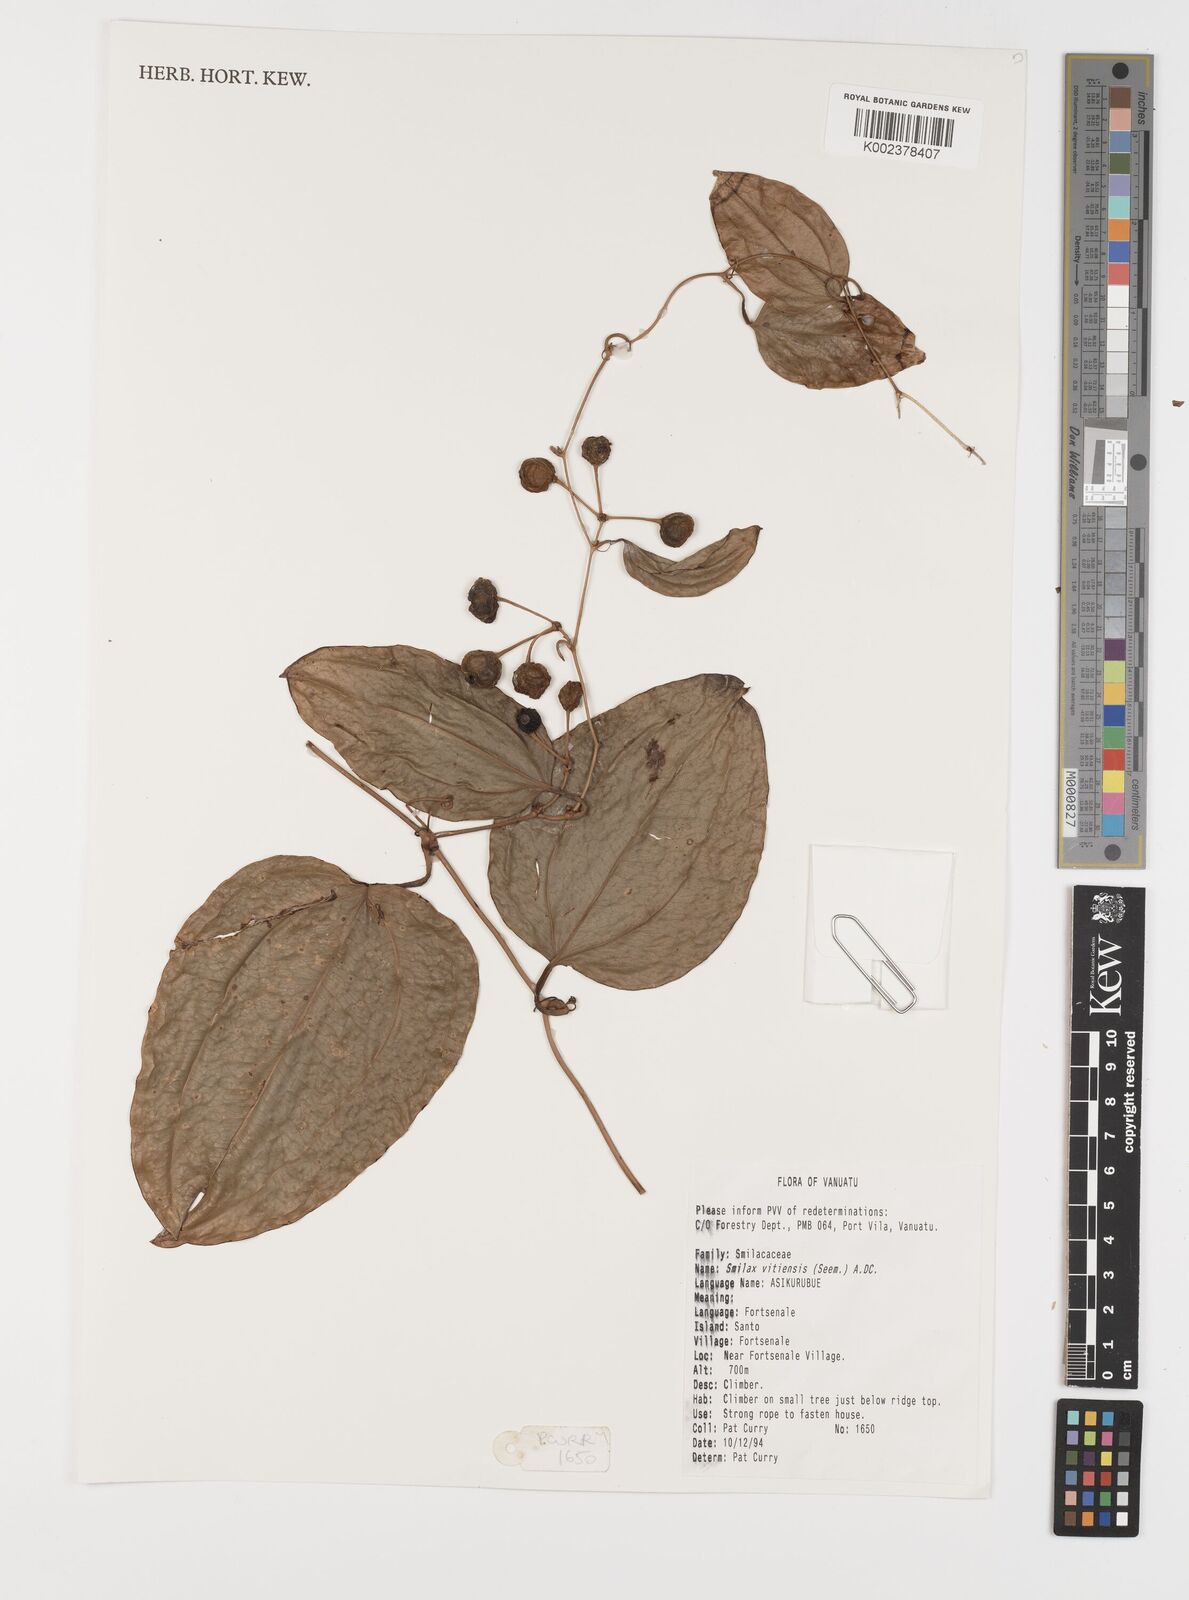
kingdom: Plantae
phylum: Tracheophyta
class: Liliopsida
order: Liliales
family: Smilacaceae
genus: Smilax
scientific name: Smilax vitiensis
